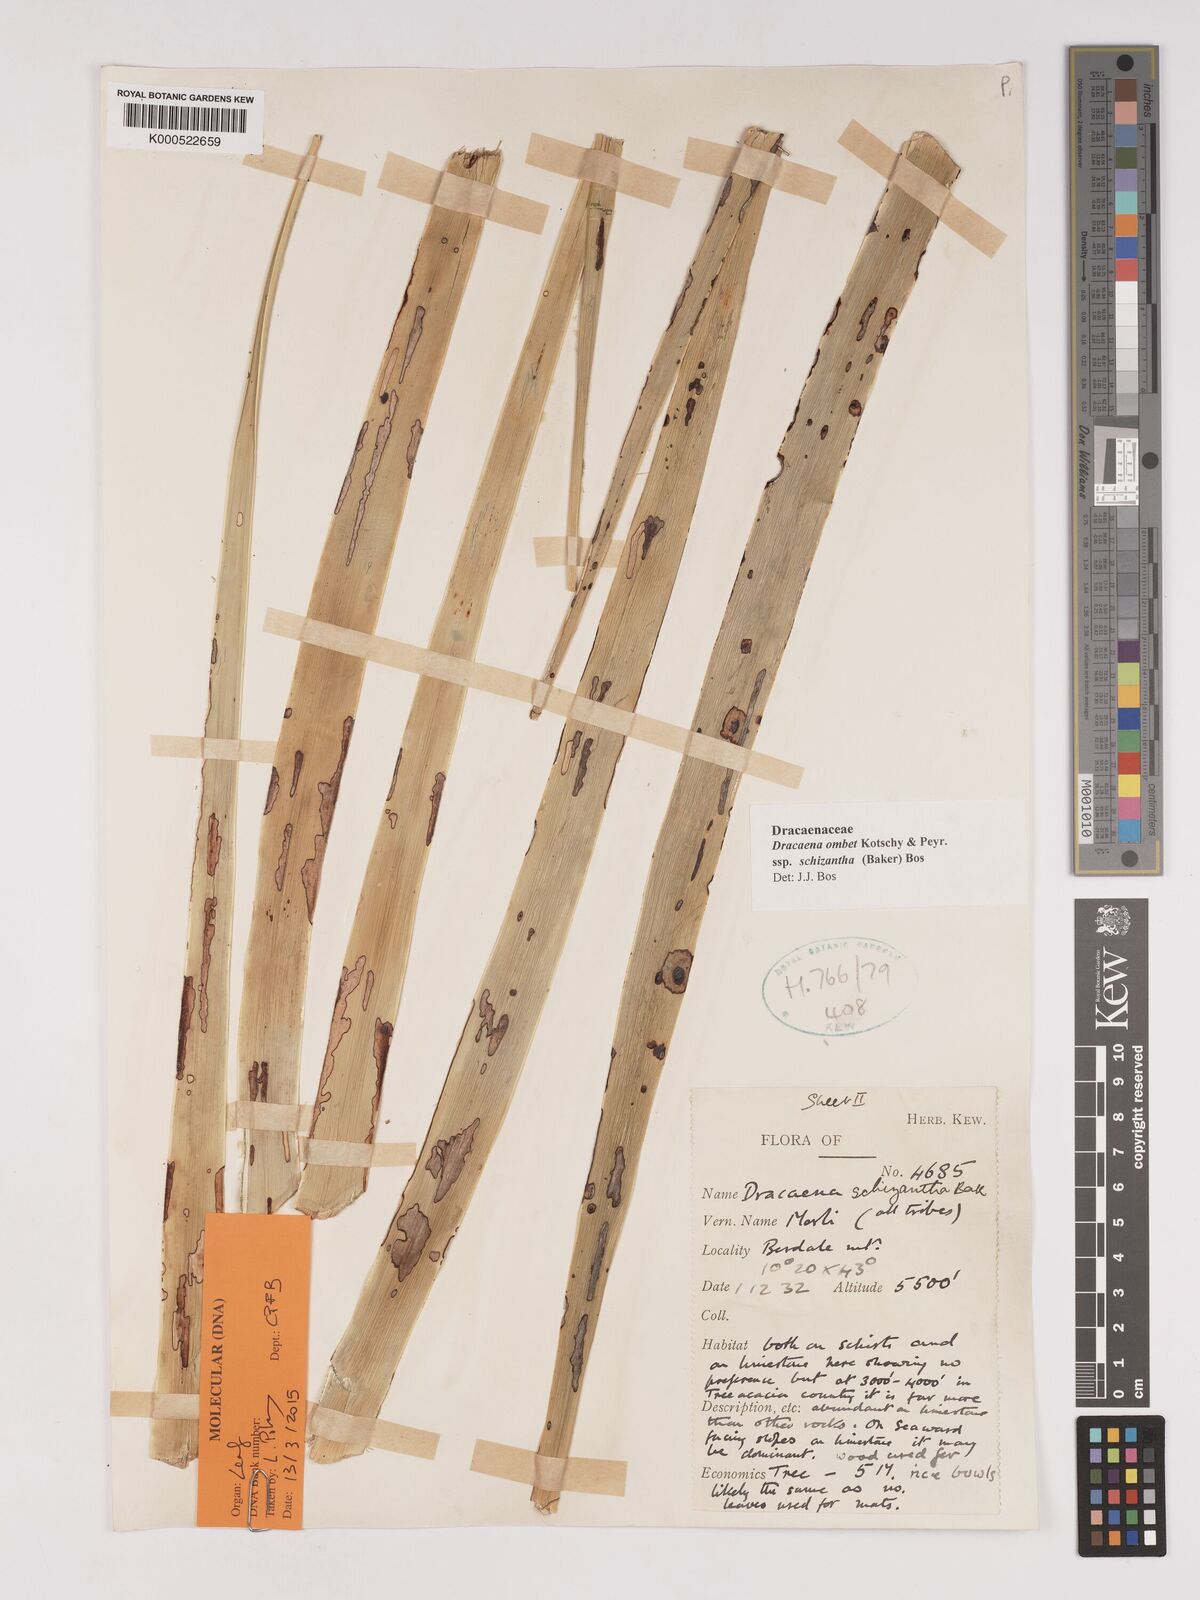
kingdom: Plantae
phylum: Tracheophyta
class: Liliopsida
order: Asparagales
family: Asparagaceae
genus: Dracaena
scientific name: Dracaena ombet
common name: Gabal elba dragon tree
